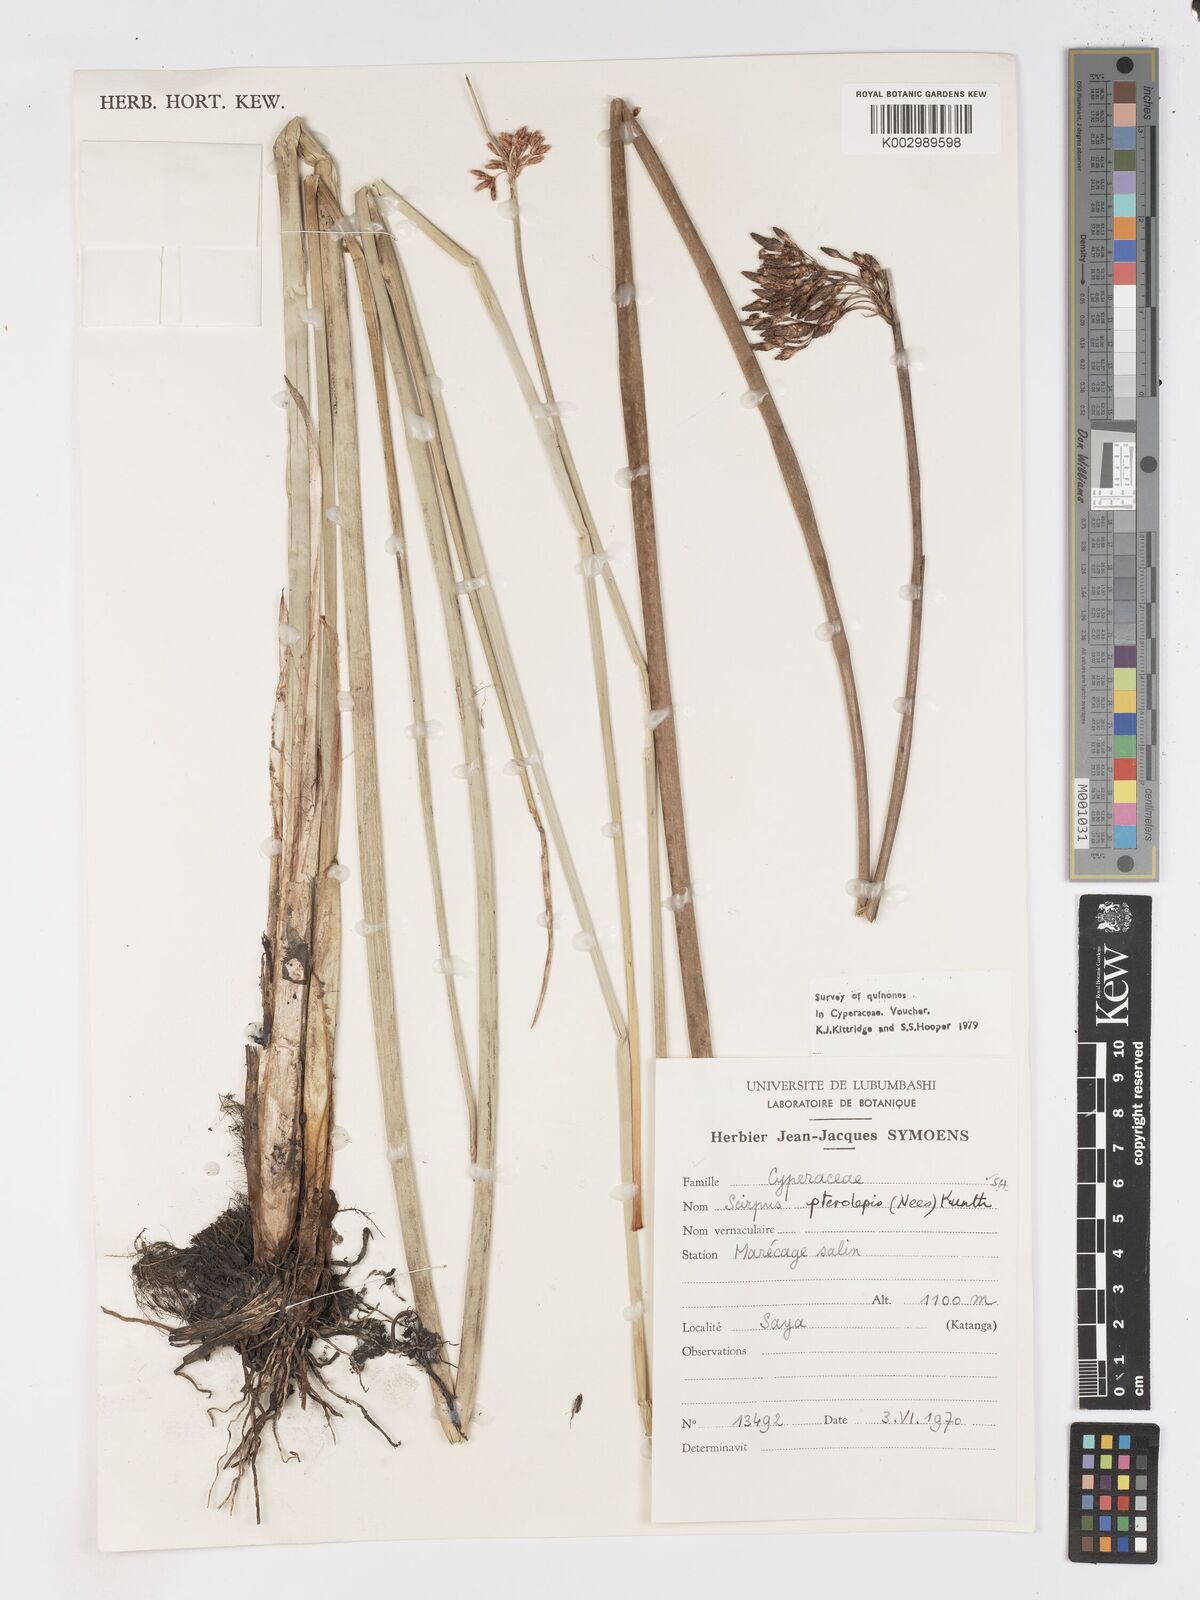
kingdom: Plantae
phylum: Tracheophyta
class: Liliopsida
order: Poales
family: Cyperaceae
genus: Schoenoplectus
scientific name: Schoenoplectus
